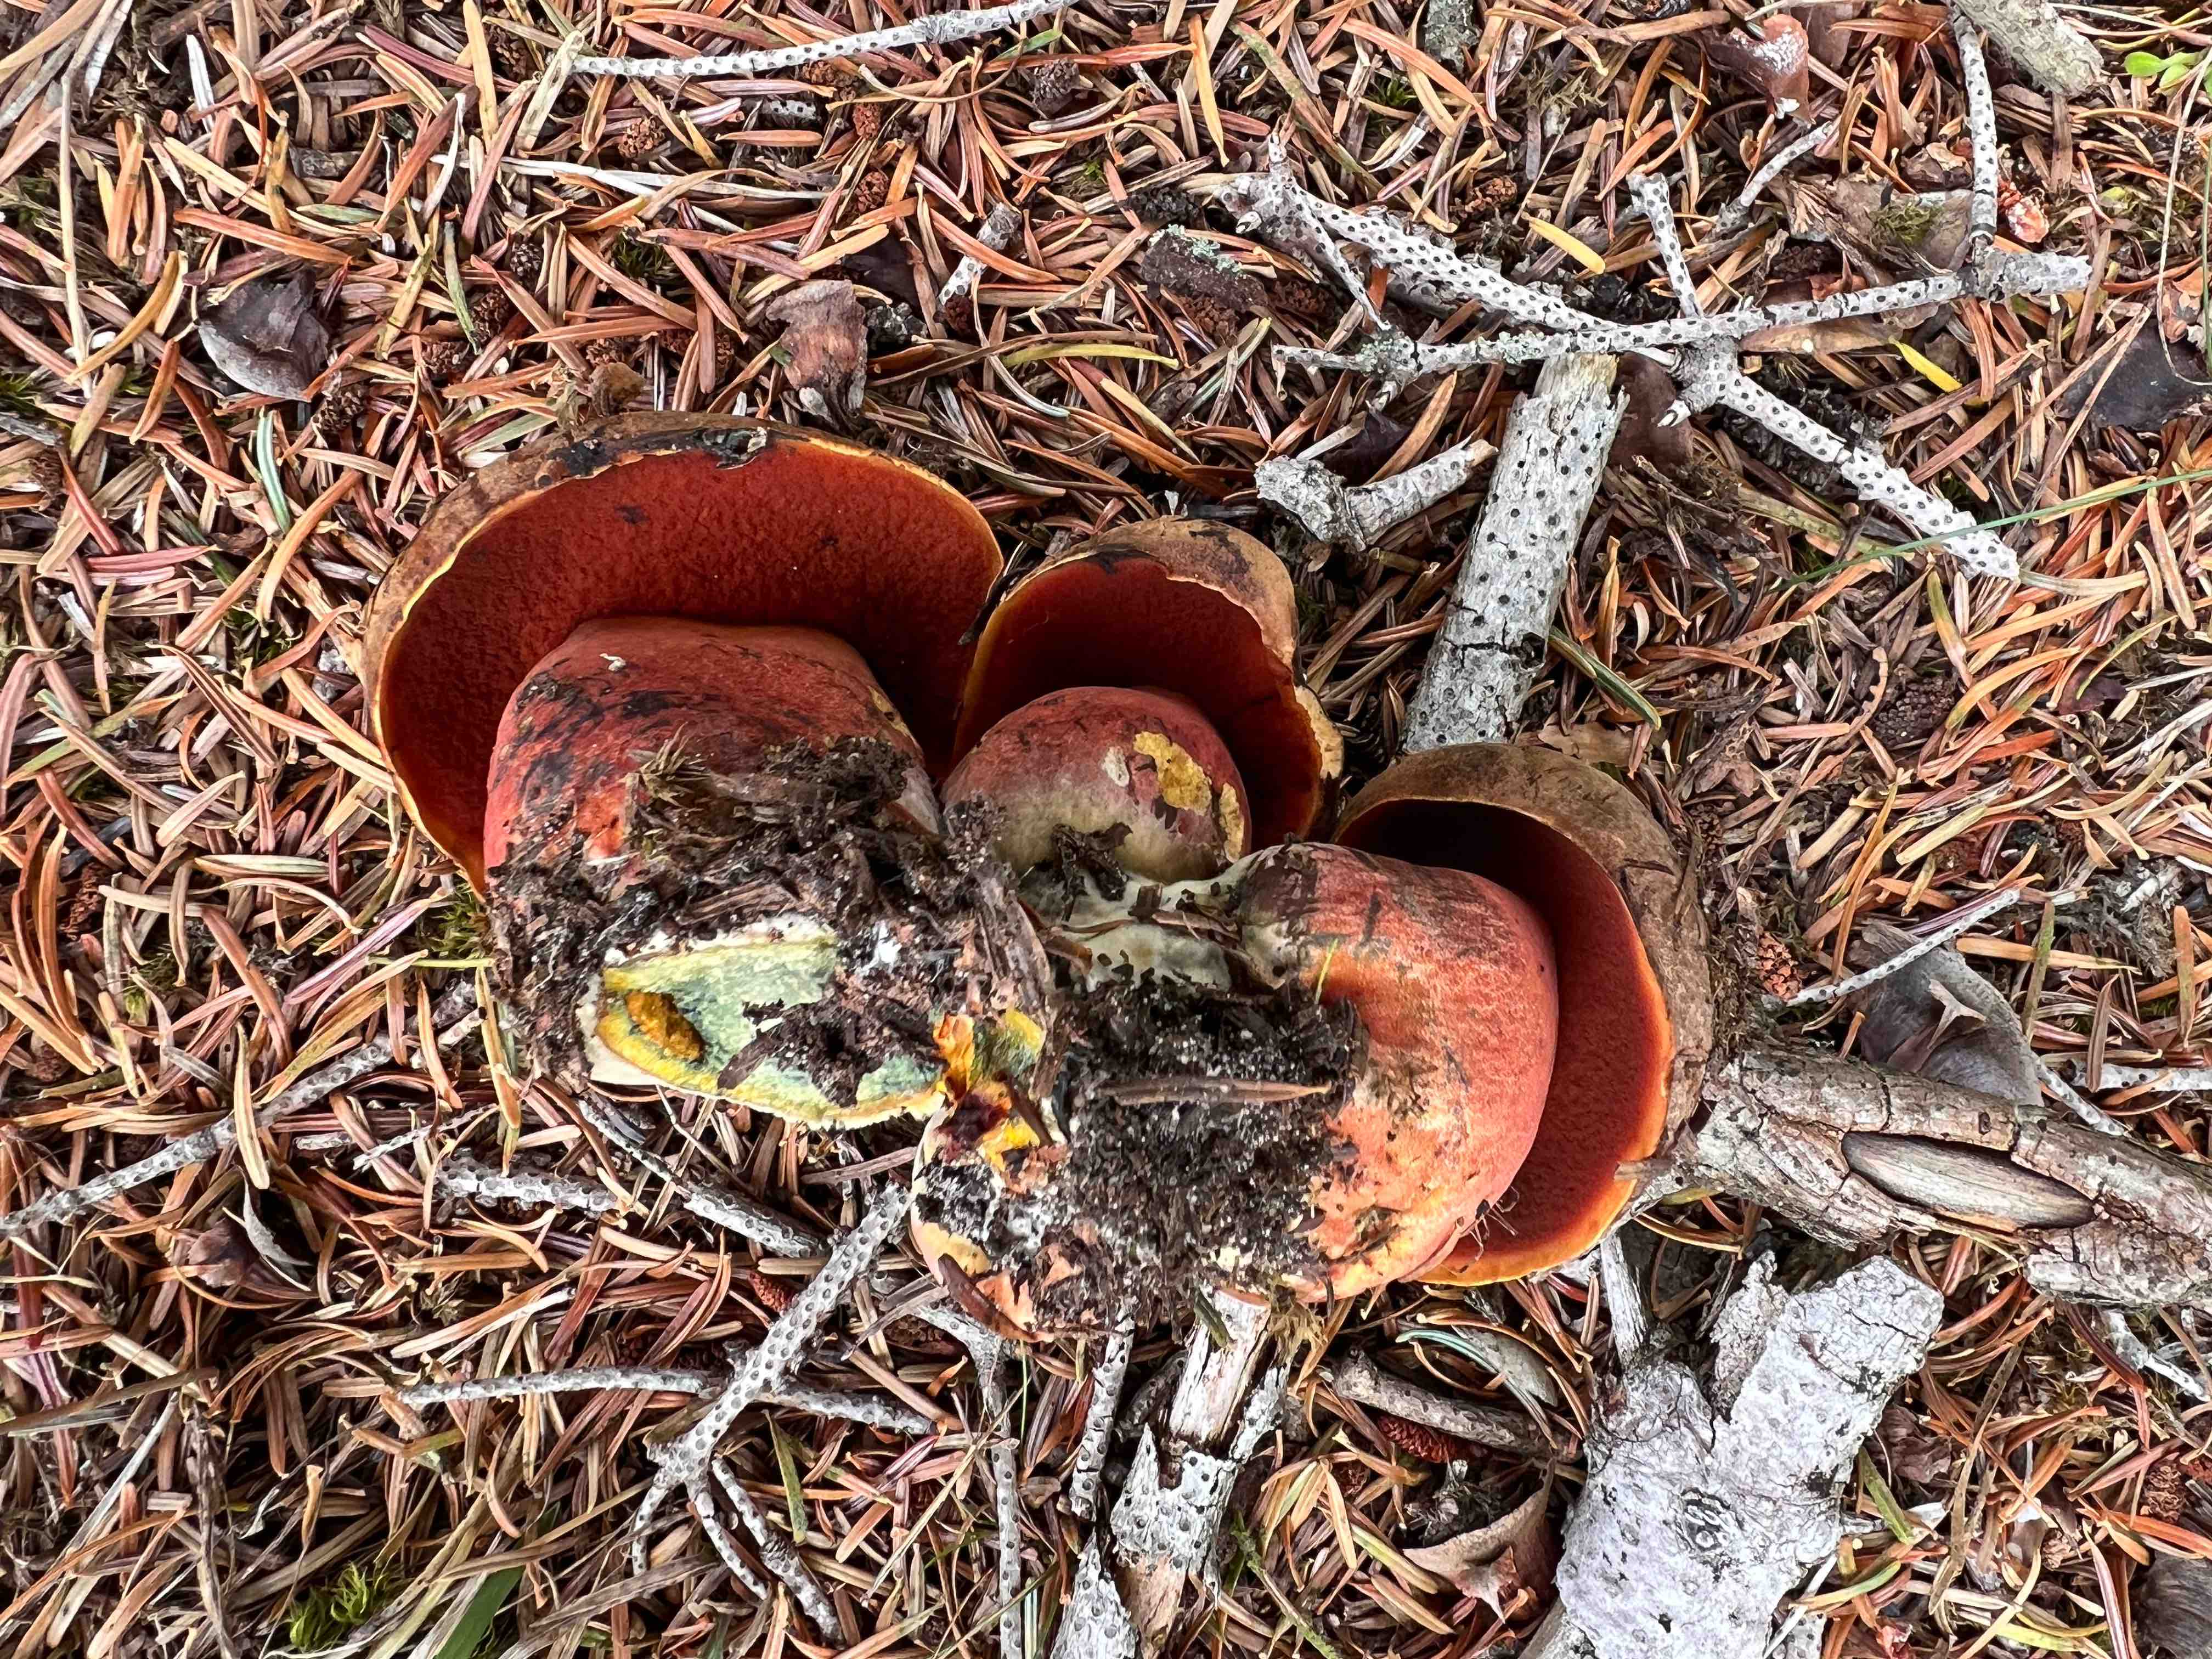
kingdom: Fungi
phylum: Basidiomycota
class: Agaricomycetes
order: Boletales
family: Boletaceae
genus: Neoboletus
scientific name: Neoboletus erythropus
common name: punktstokket indigorørhat
